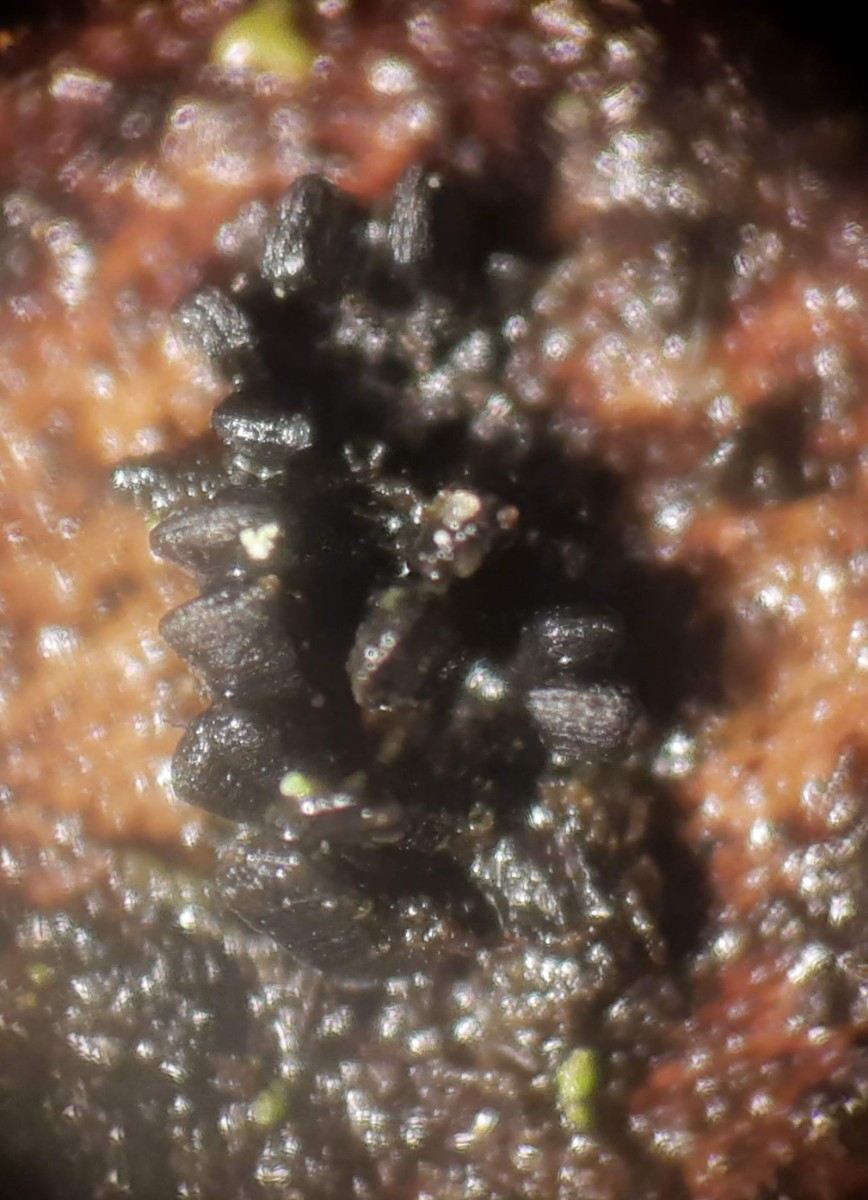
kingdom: Fungi
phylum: Ascomycota
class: Eurotiomycetes
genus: Glyphium
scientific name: Glyphium elatum
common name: kuløkse
